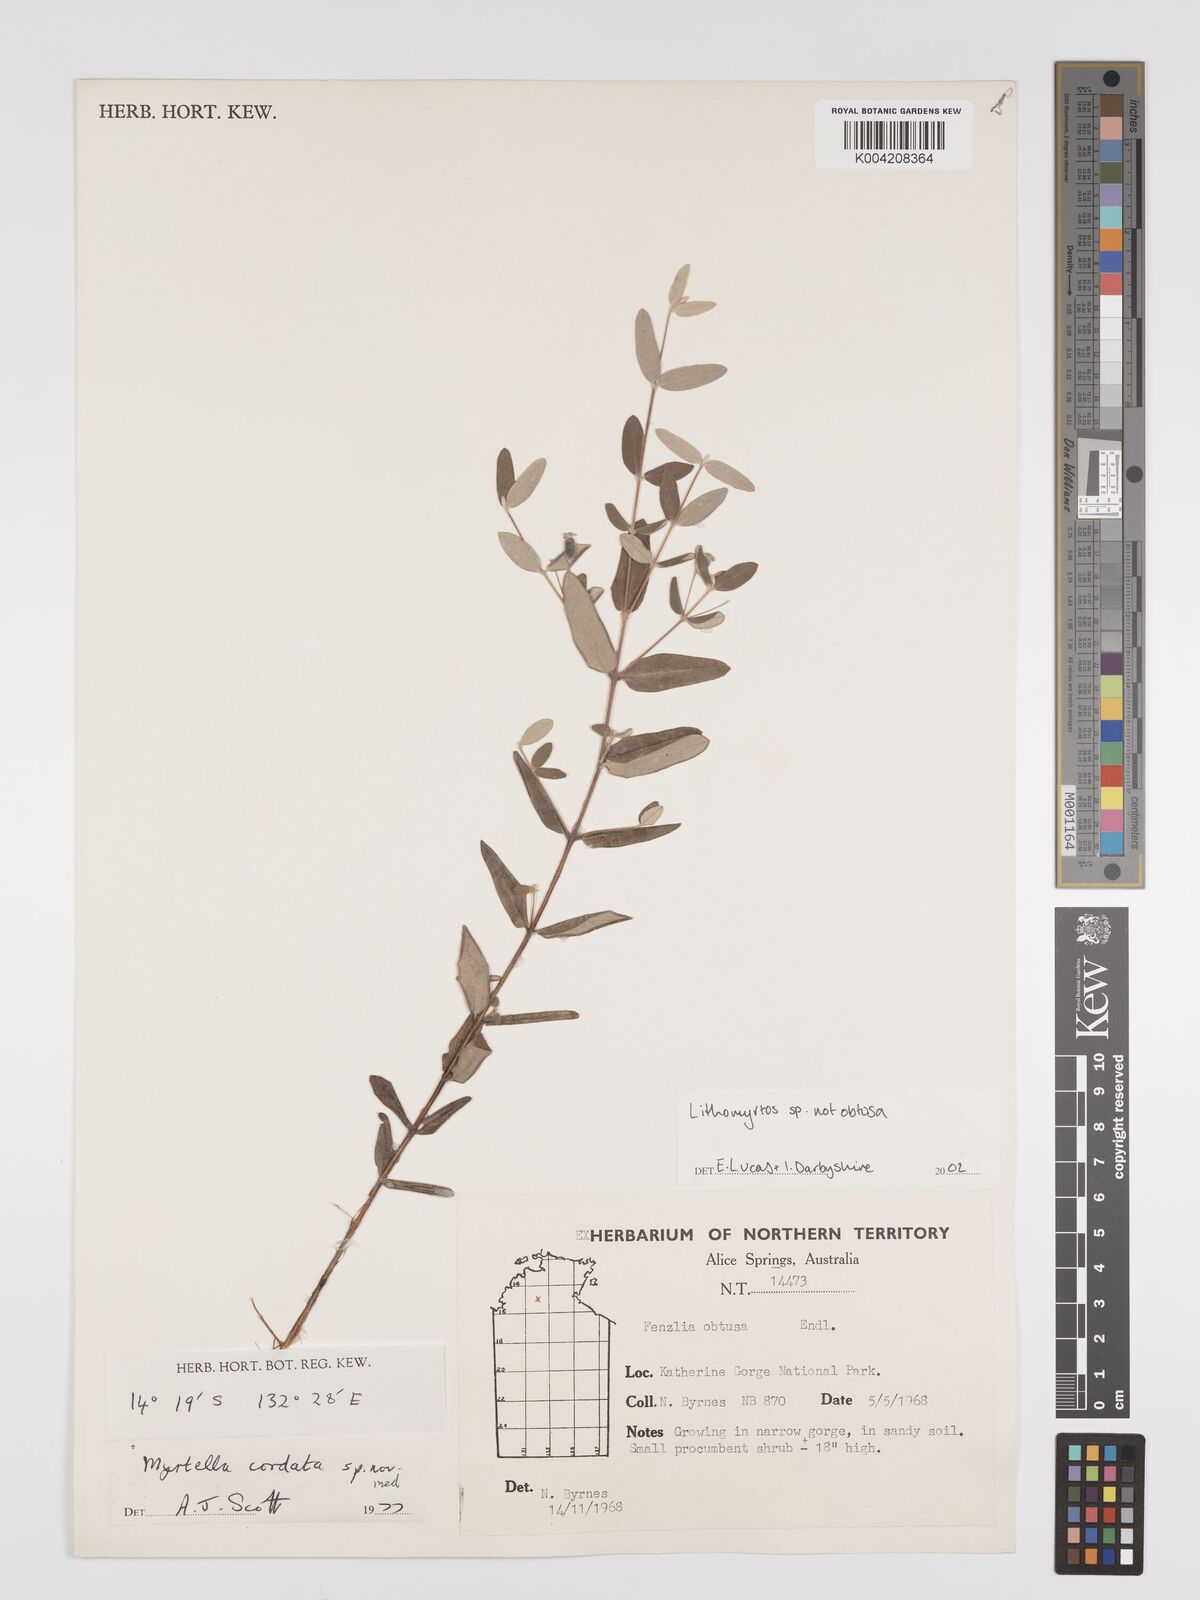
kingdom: Plantae
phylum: Tracheophyta
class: Magnoliopsida
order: Myrtales
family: Myrtaceae
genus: Lithomyrtus
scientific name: Lithomyrtus
